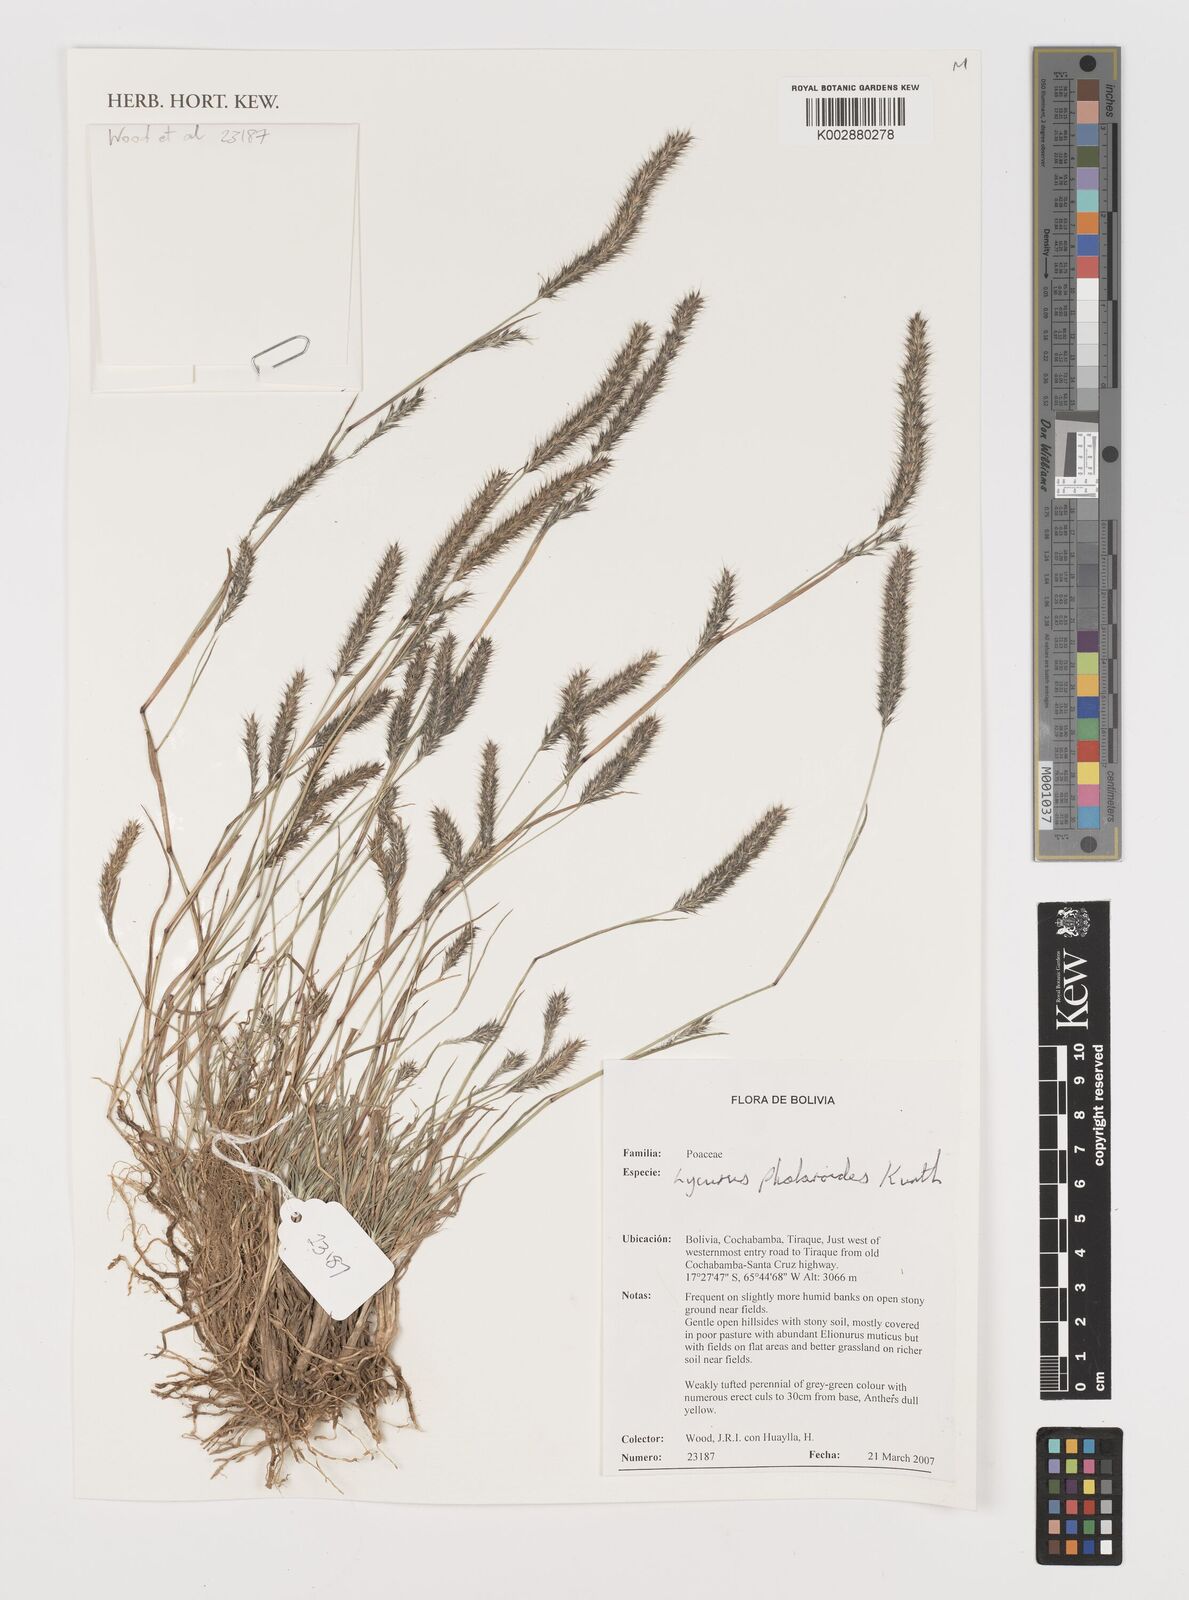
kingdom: Plantae
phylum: Tracheophyta
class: Liliopsida
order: Poales
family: Poaceae
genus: Muhlenbergia
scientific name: Muhlenbergia phleoides
